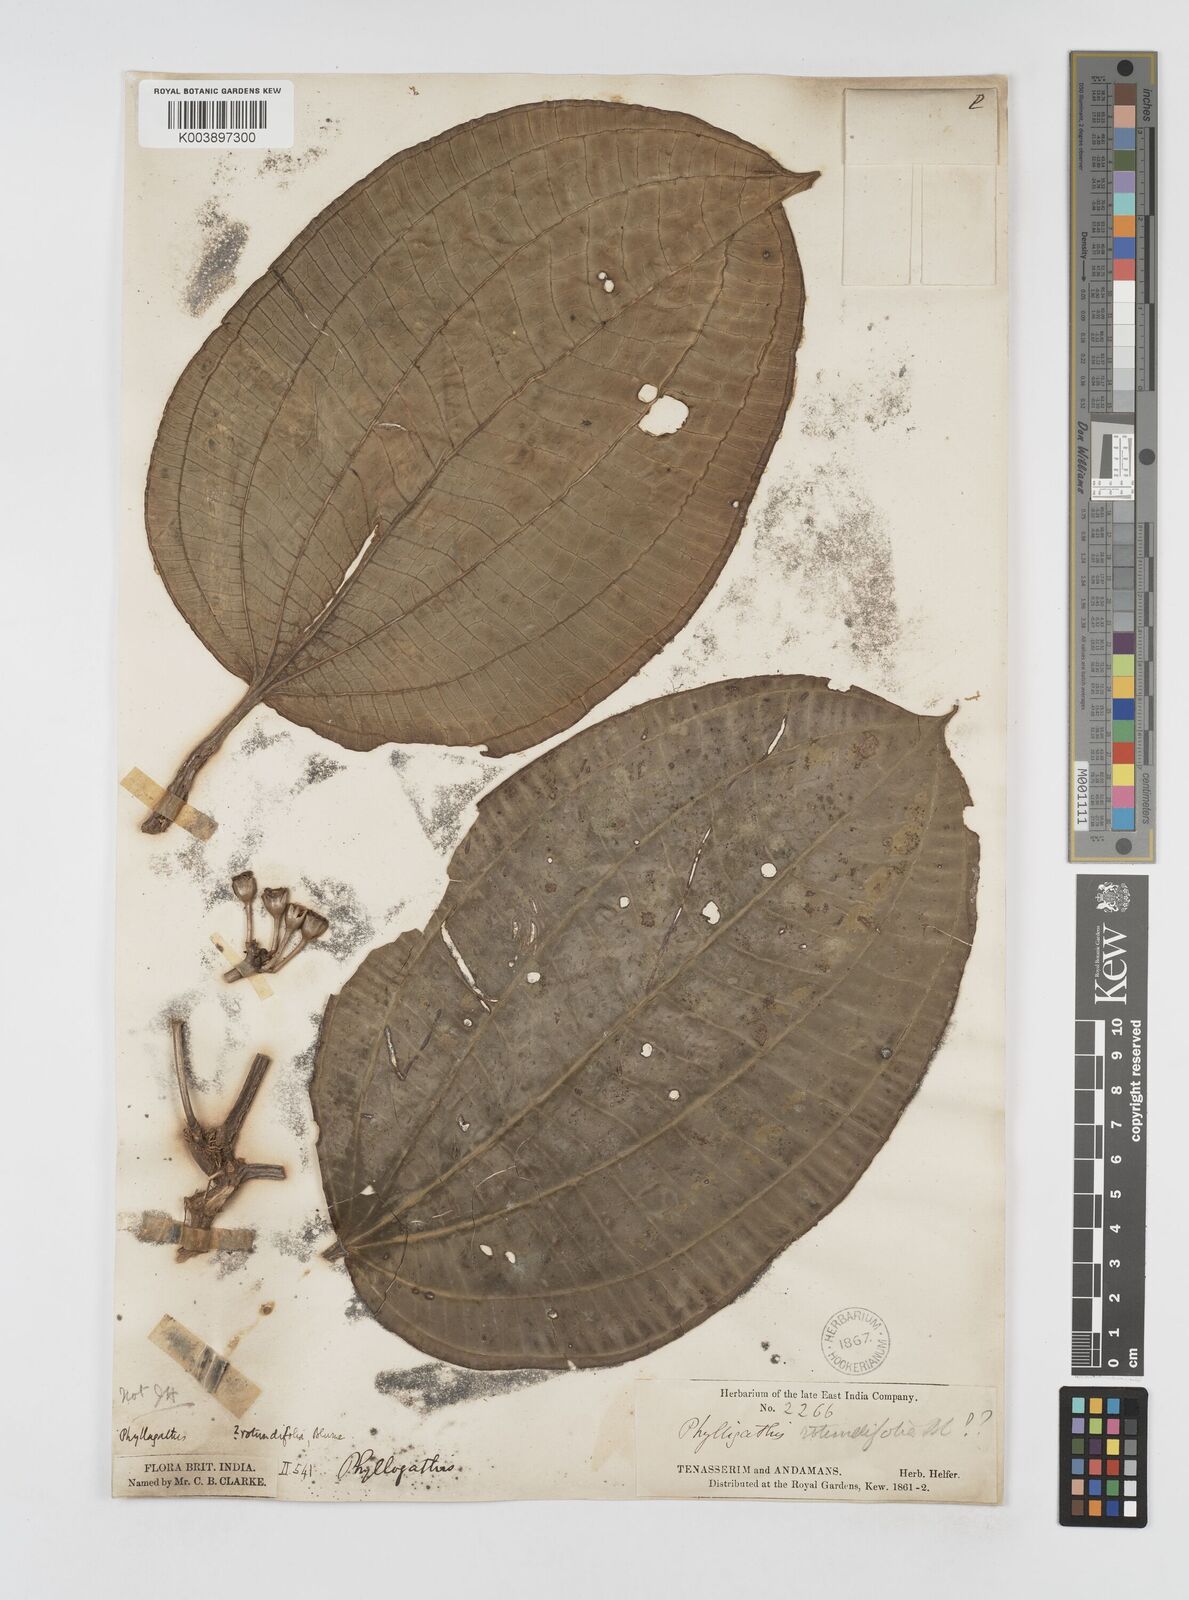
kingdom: Plantae
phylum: Tracheophyta
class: Magnoliopsida
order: Myrtales
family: Melastomataceae
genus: Phyllagathis
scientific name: Phyllagathis rotundifolia
